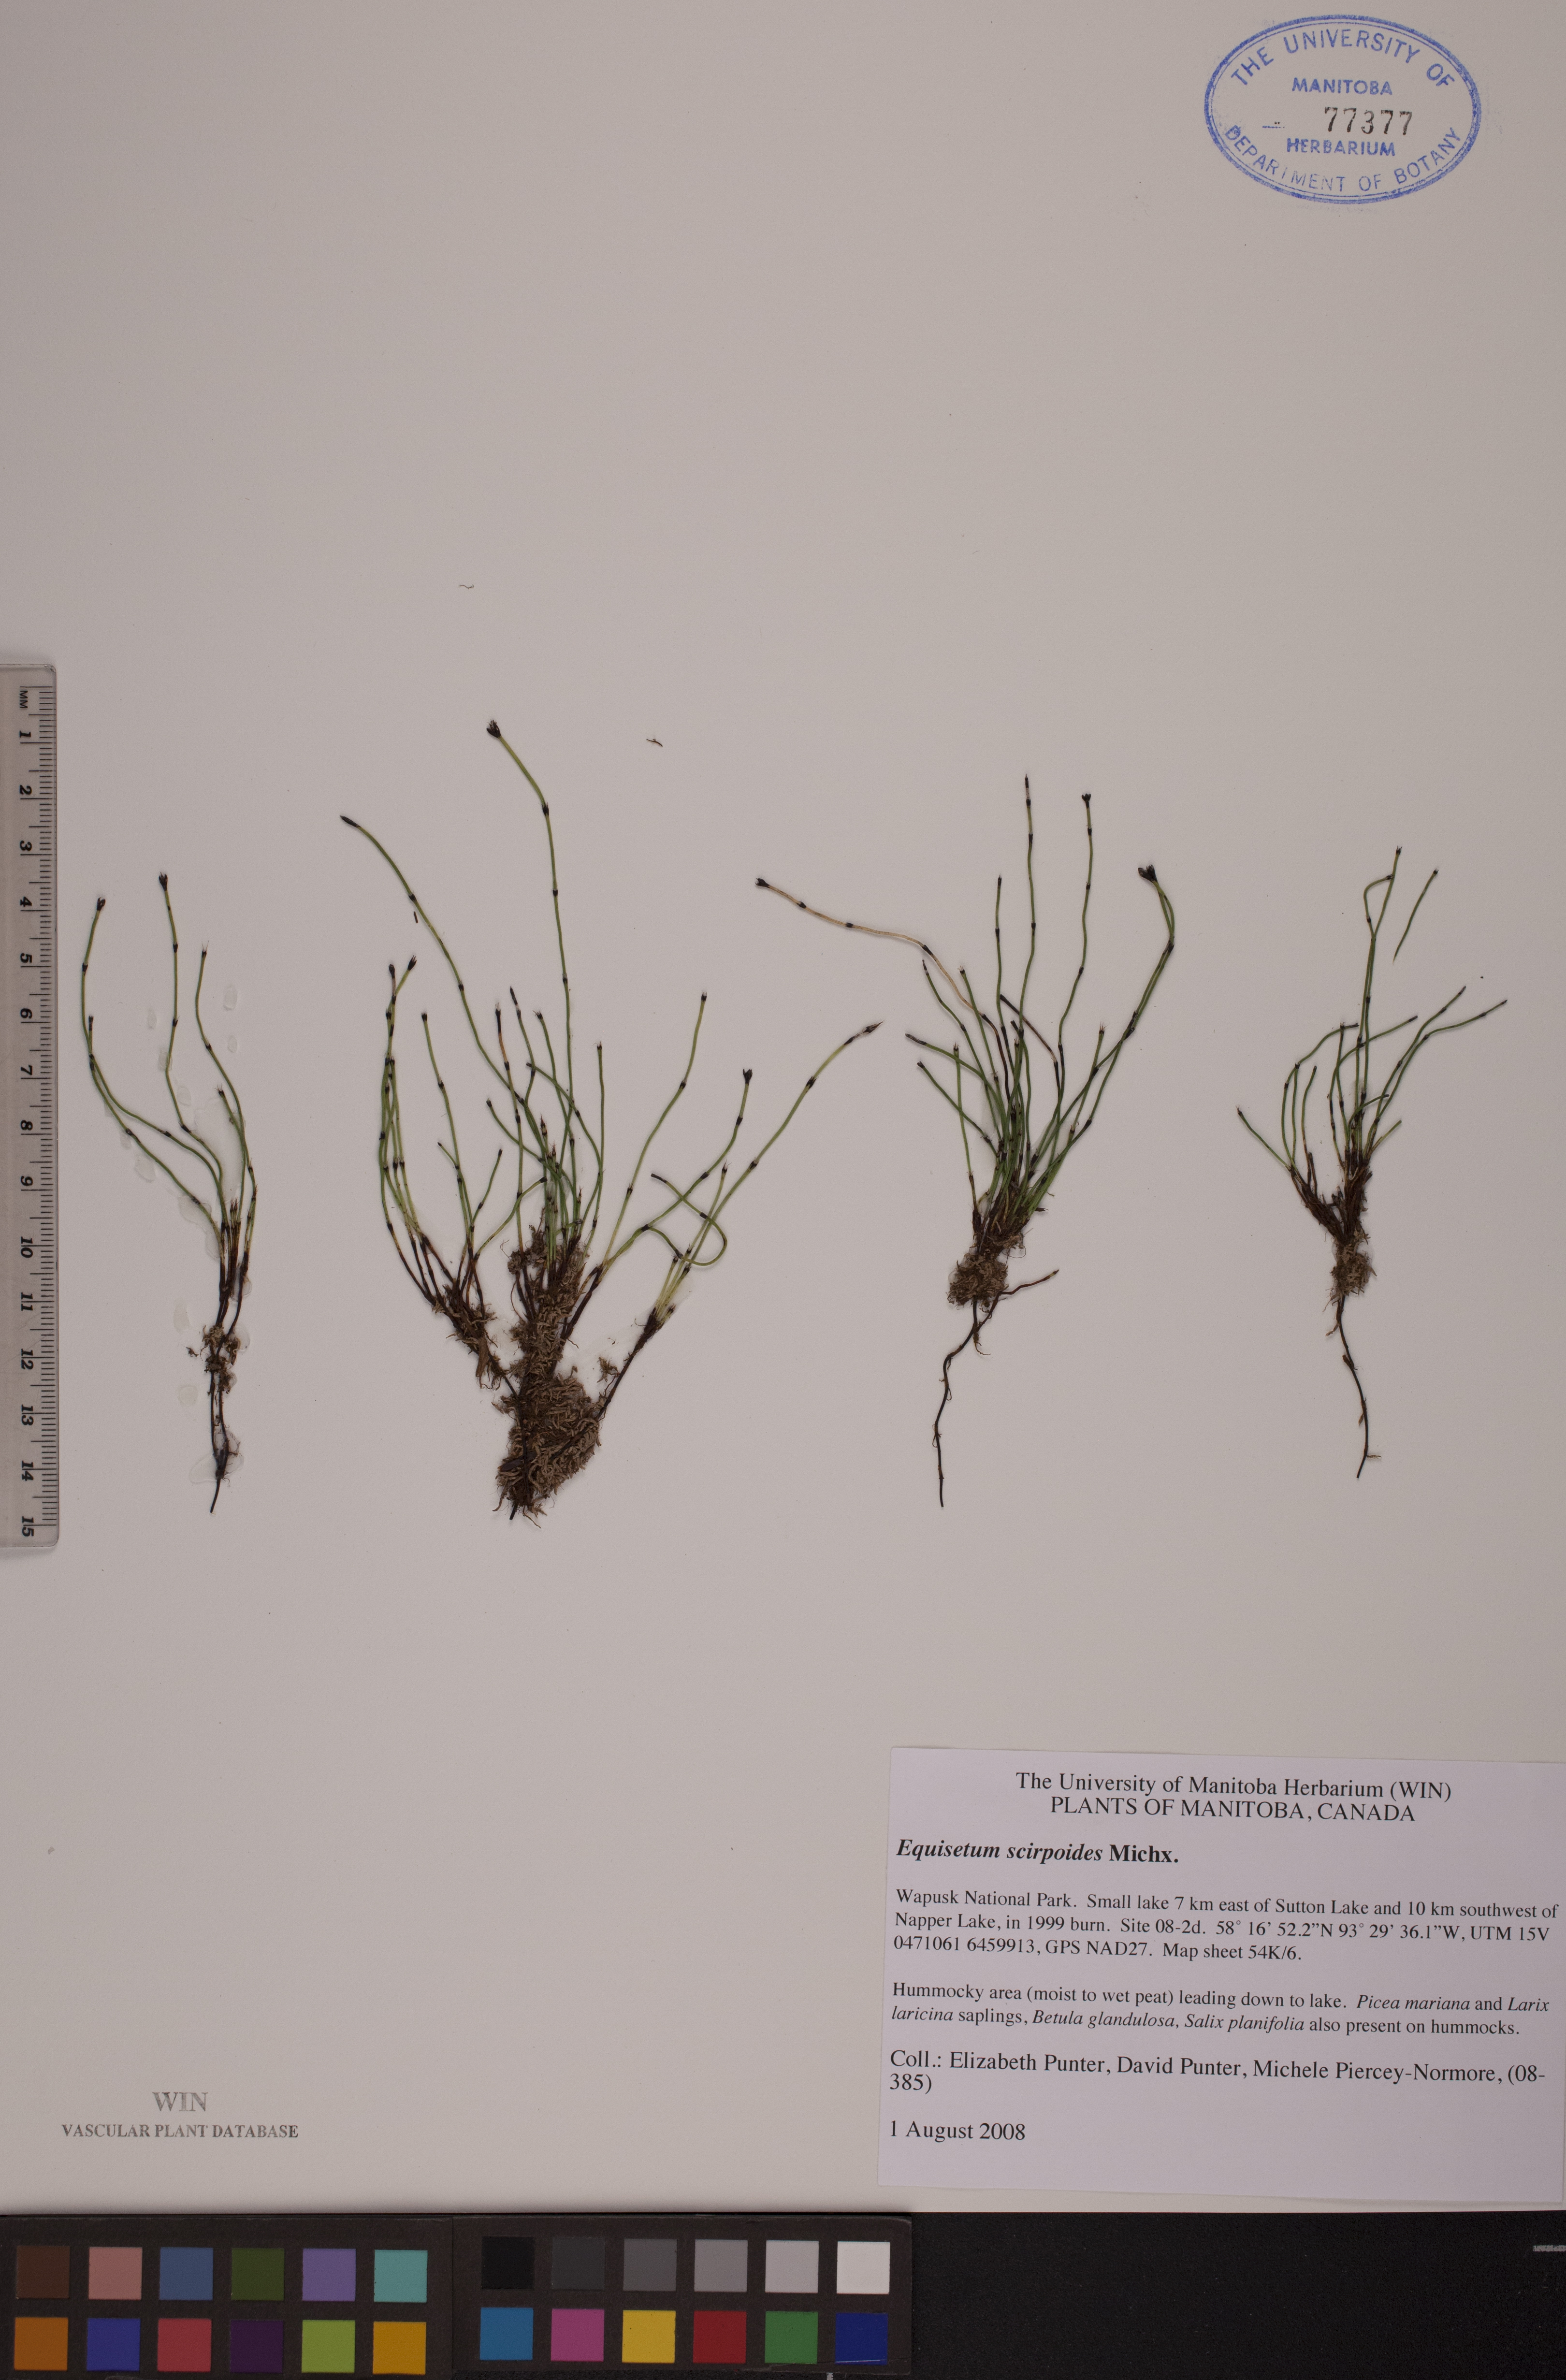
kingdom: Plantae
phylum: Tracheophyta
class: Polypodiopsida
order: Equisetales
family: Equisetaceae
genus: Equisetum
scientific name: Equisetum scirpoides
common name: Delicate horsetail
